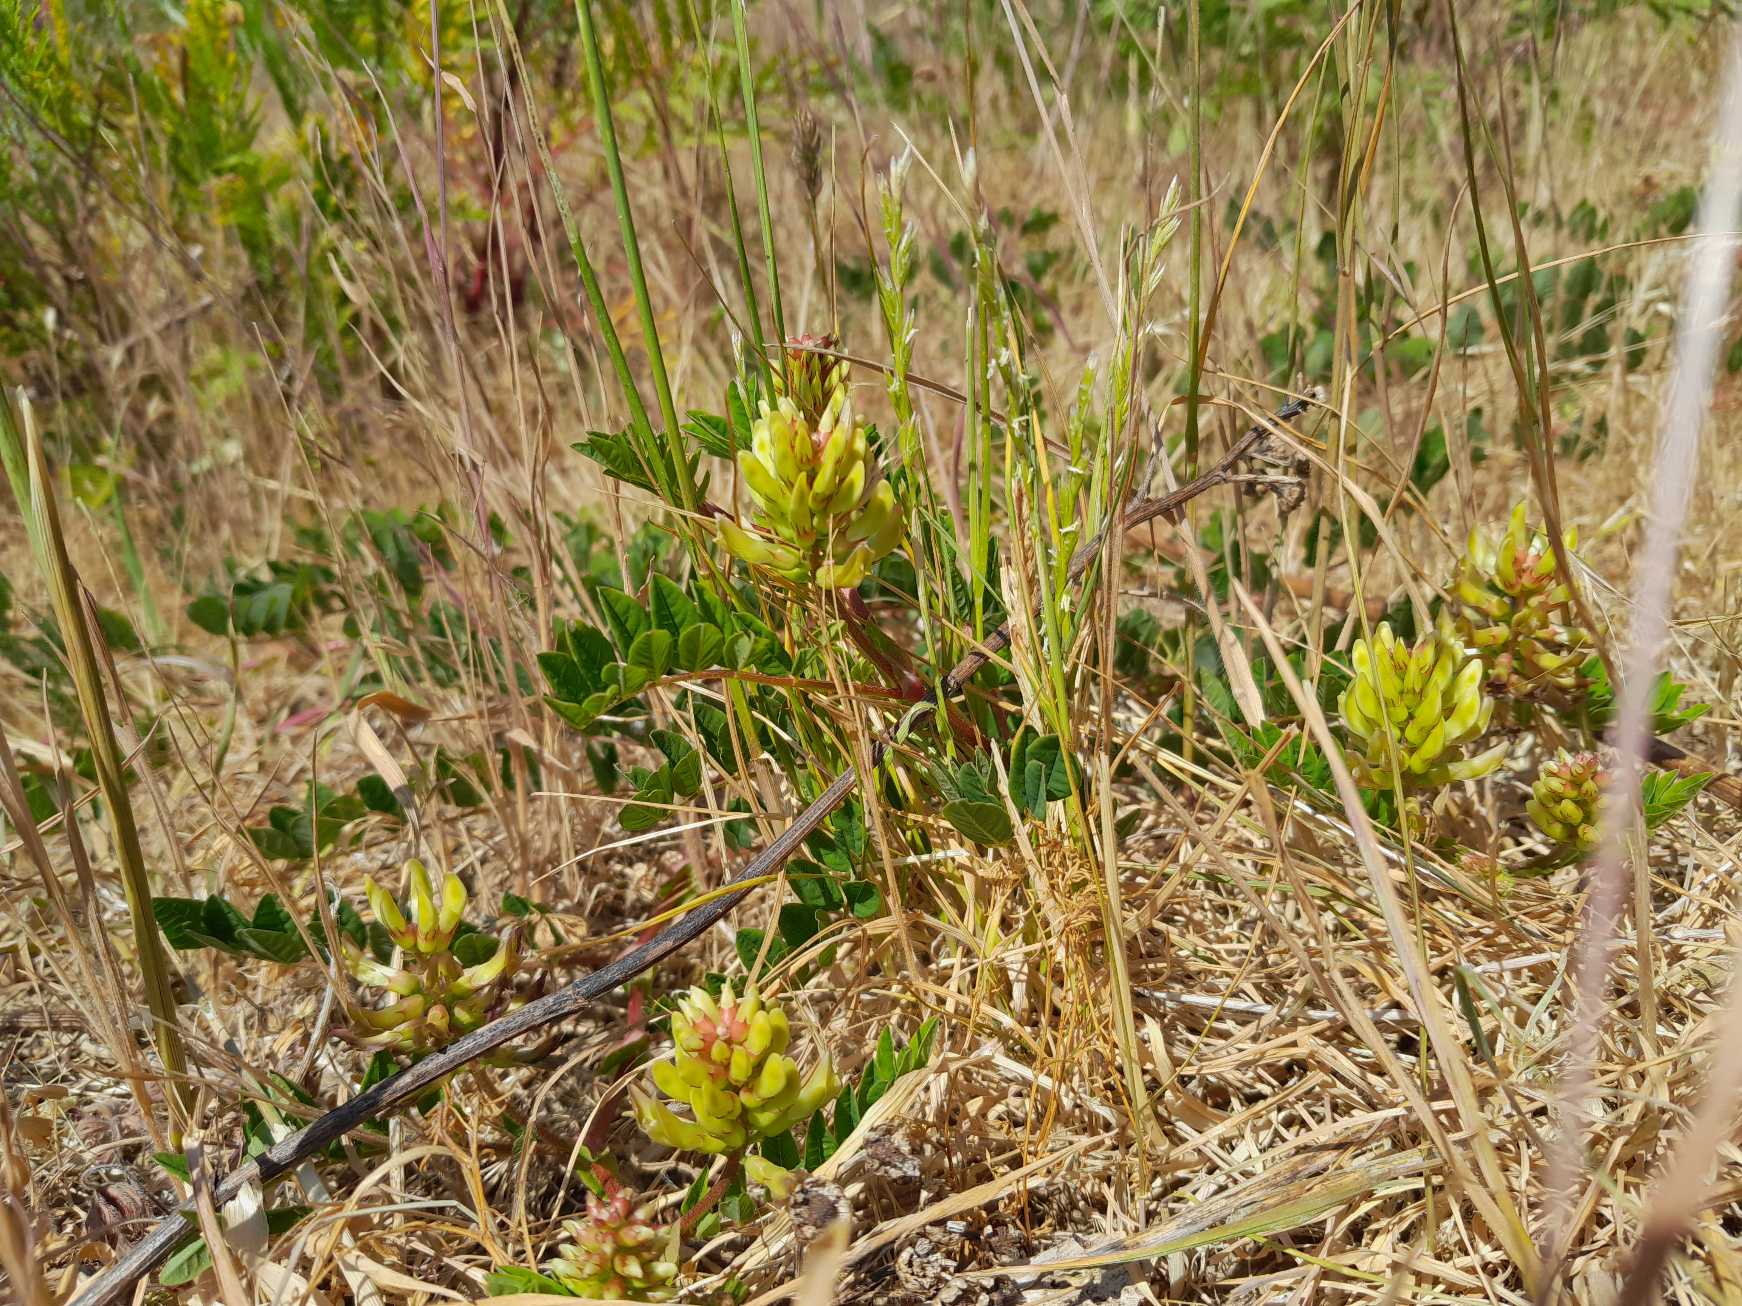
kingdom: Plantae
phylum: Tracheophyta
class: Magnoliopsida
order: Fabales
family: Fabaceae
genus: Astragalus
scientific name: Astragalus glycyphyllos
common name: Sød astragel
